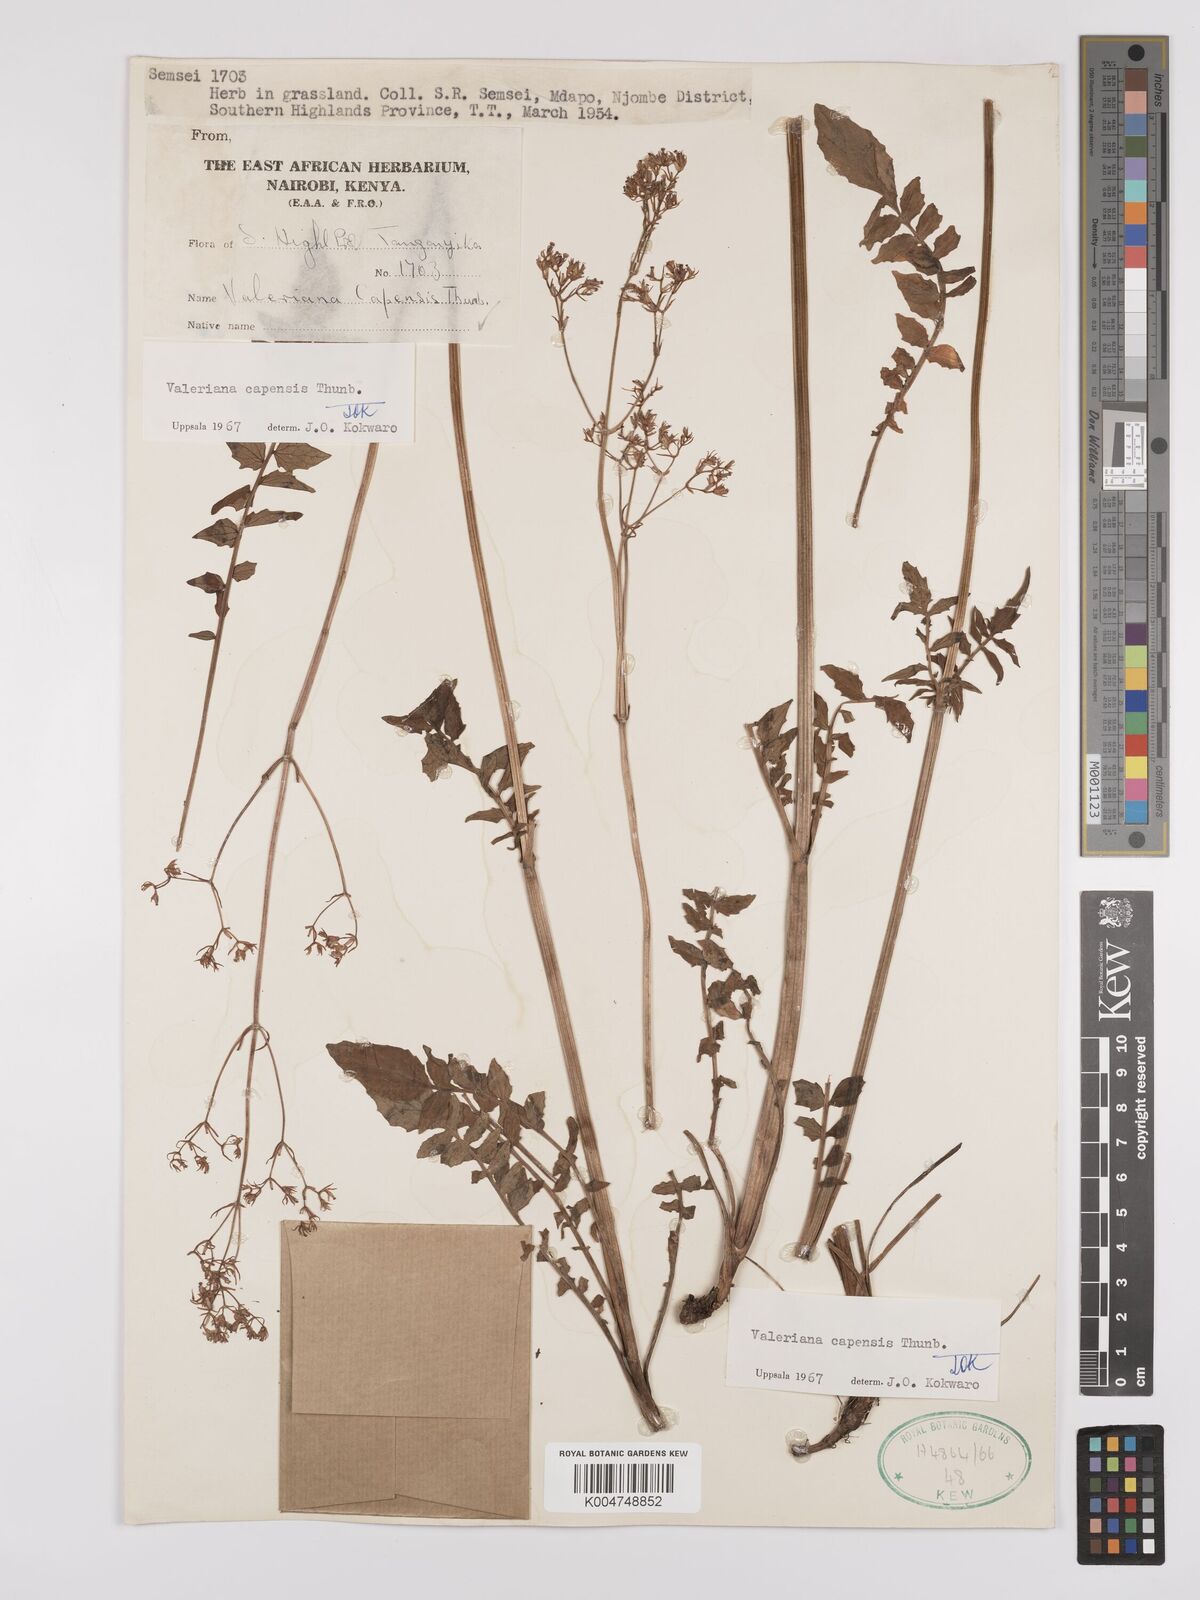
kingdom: Plantae
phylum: Tracheophyta
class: Magnoliopsida
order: Dipsacales
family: Caprifoliaceae
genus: Valeriana
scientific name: Valeriana capensis
